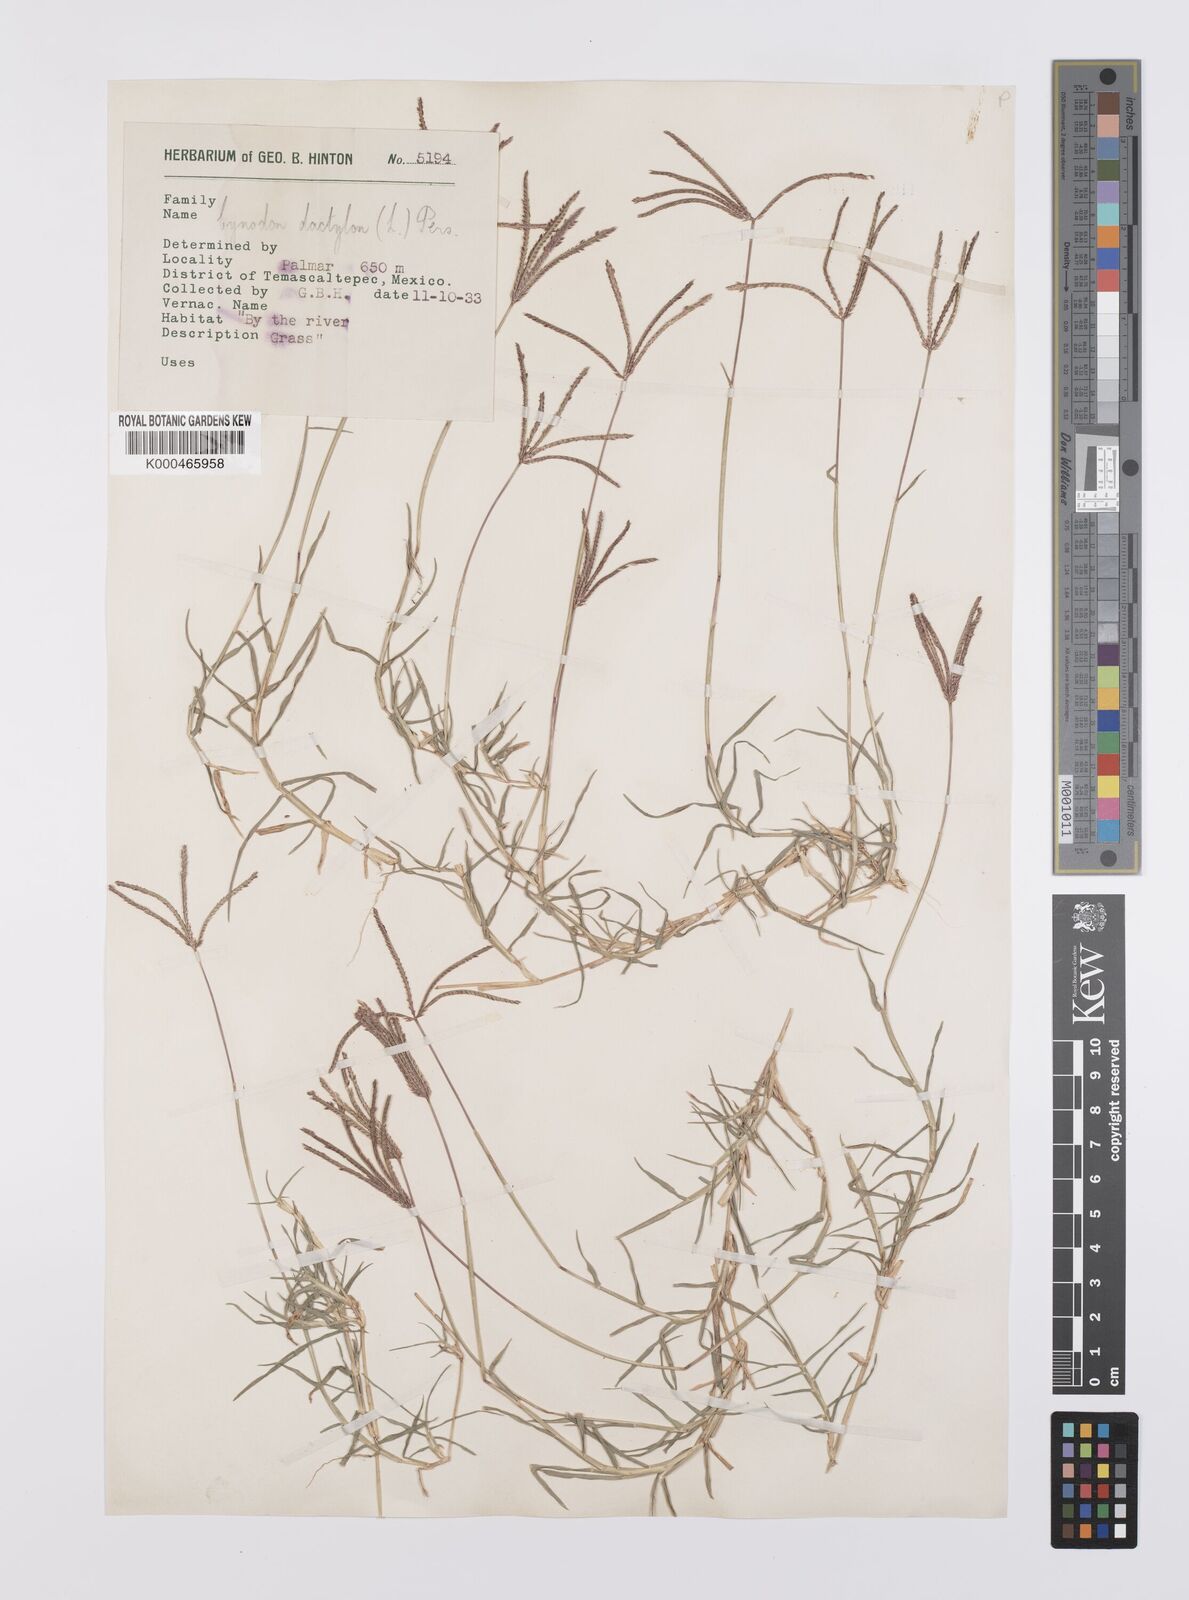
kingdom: Plantae
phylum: Tracheophyta
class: Liliopsida
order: Poales
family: Poaceae
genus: Cynodon
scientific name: Cynodon dactylon
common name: Bermuda grass
